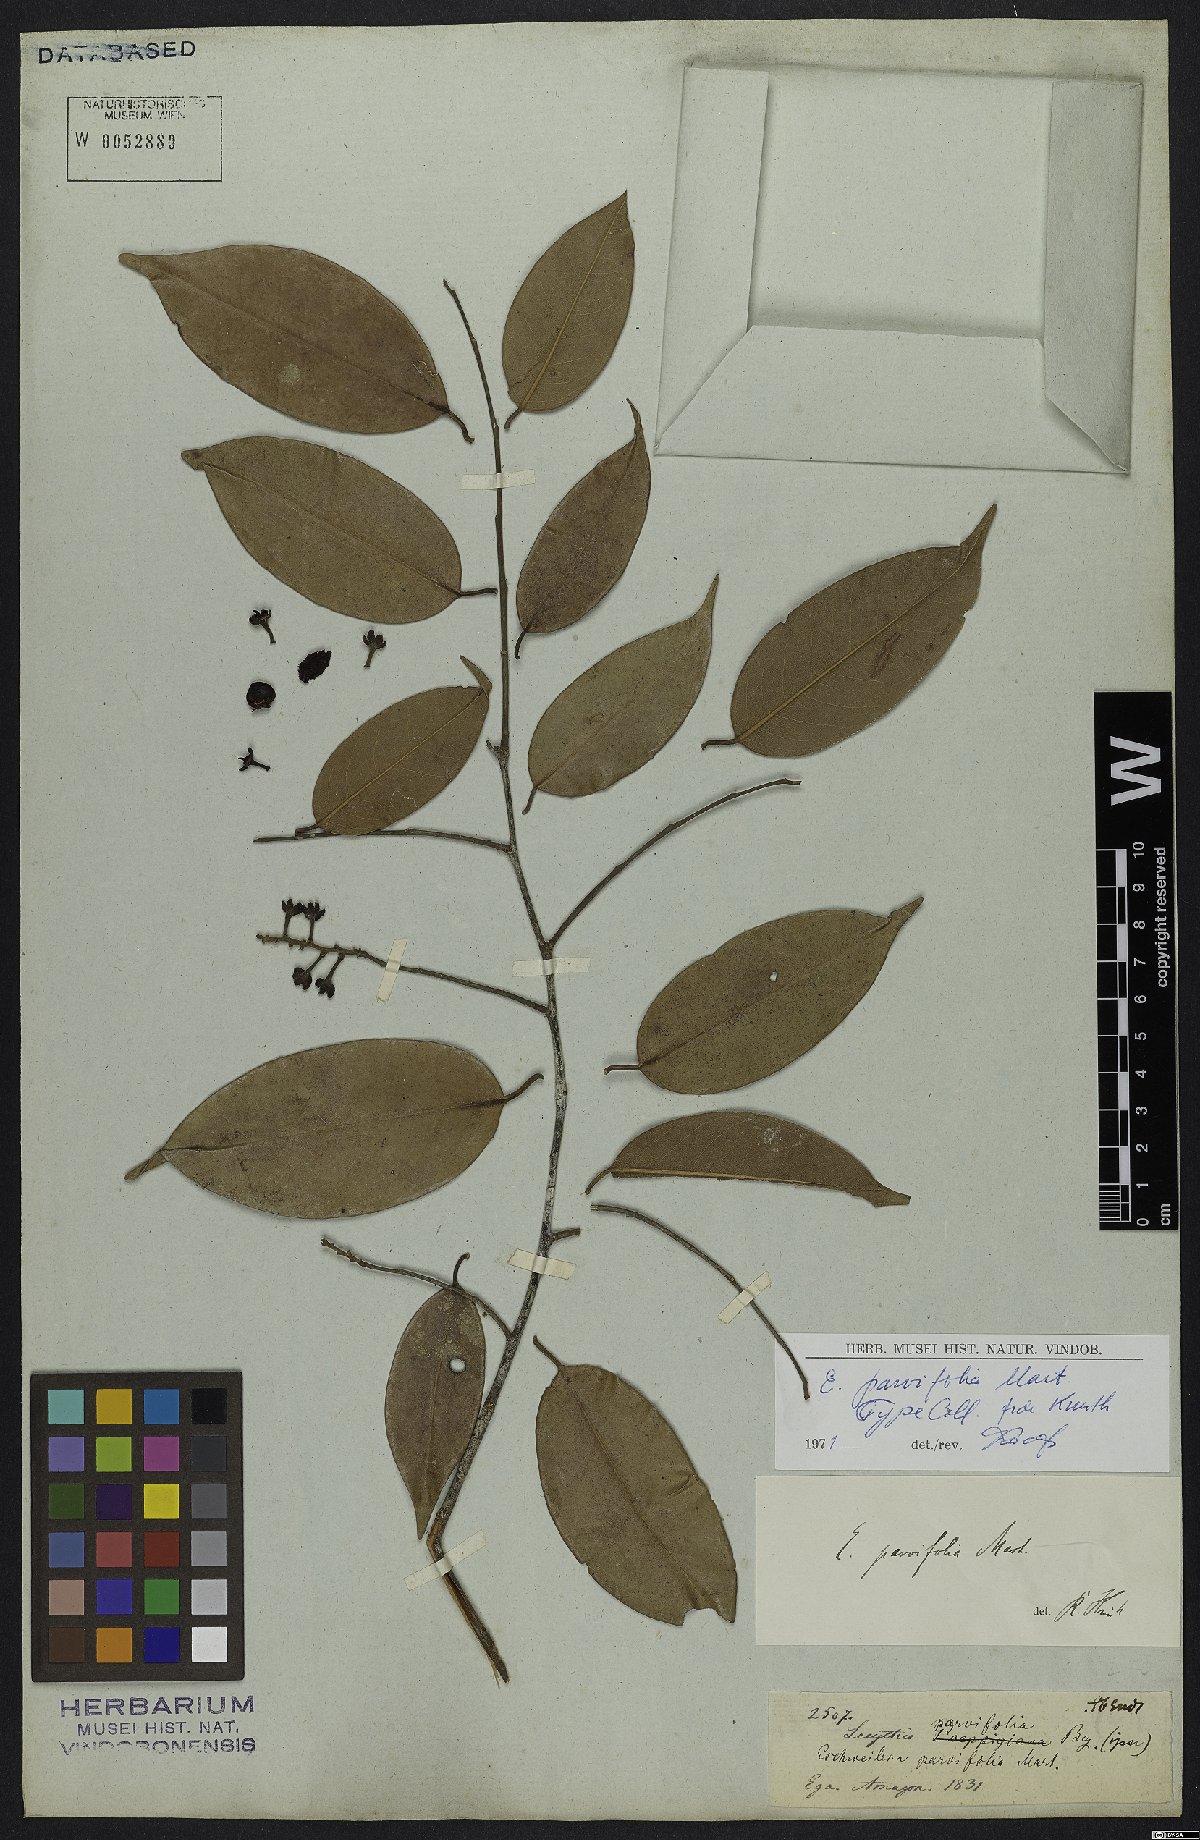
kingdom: Plantae
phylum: Tracheophyta
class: Magnoliopsida
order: Ericales
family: Lecythidaceae
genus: Eschweilera
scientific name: Eschweilera parvifolia
